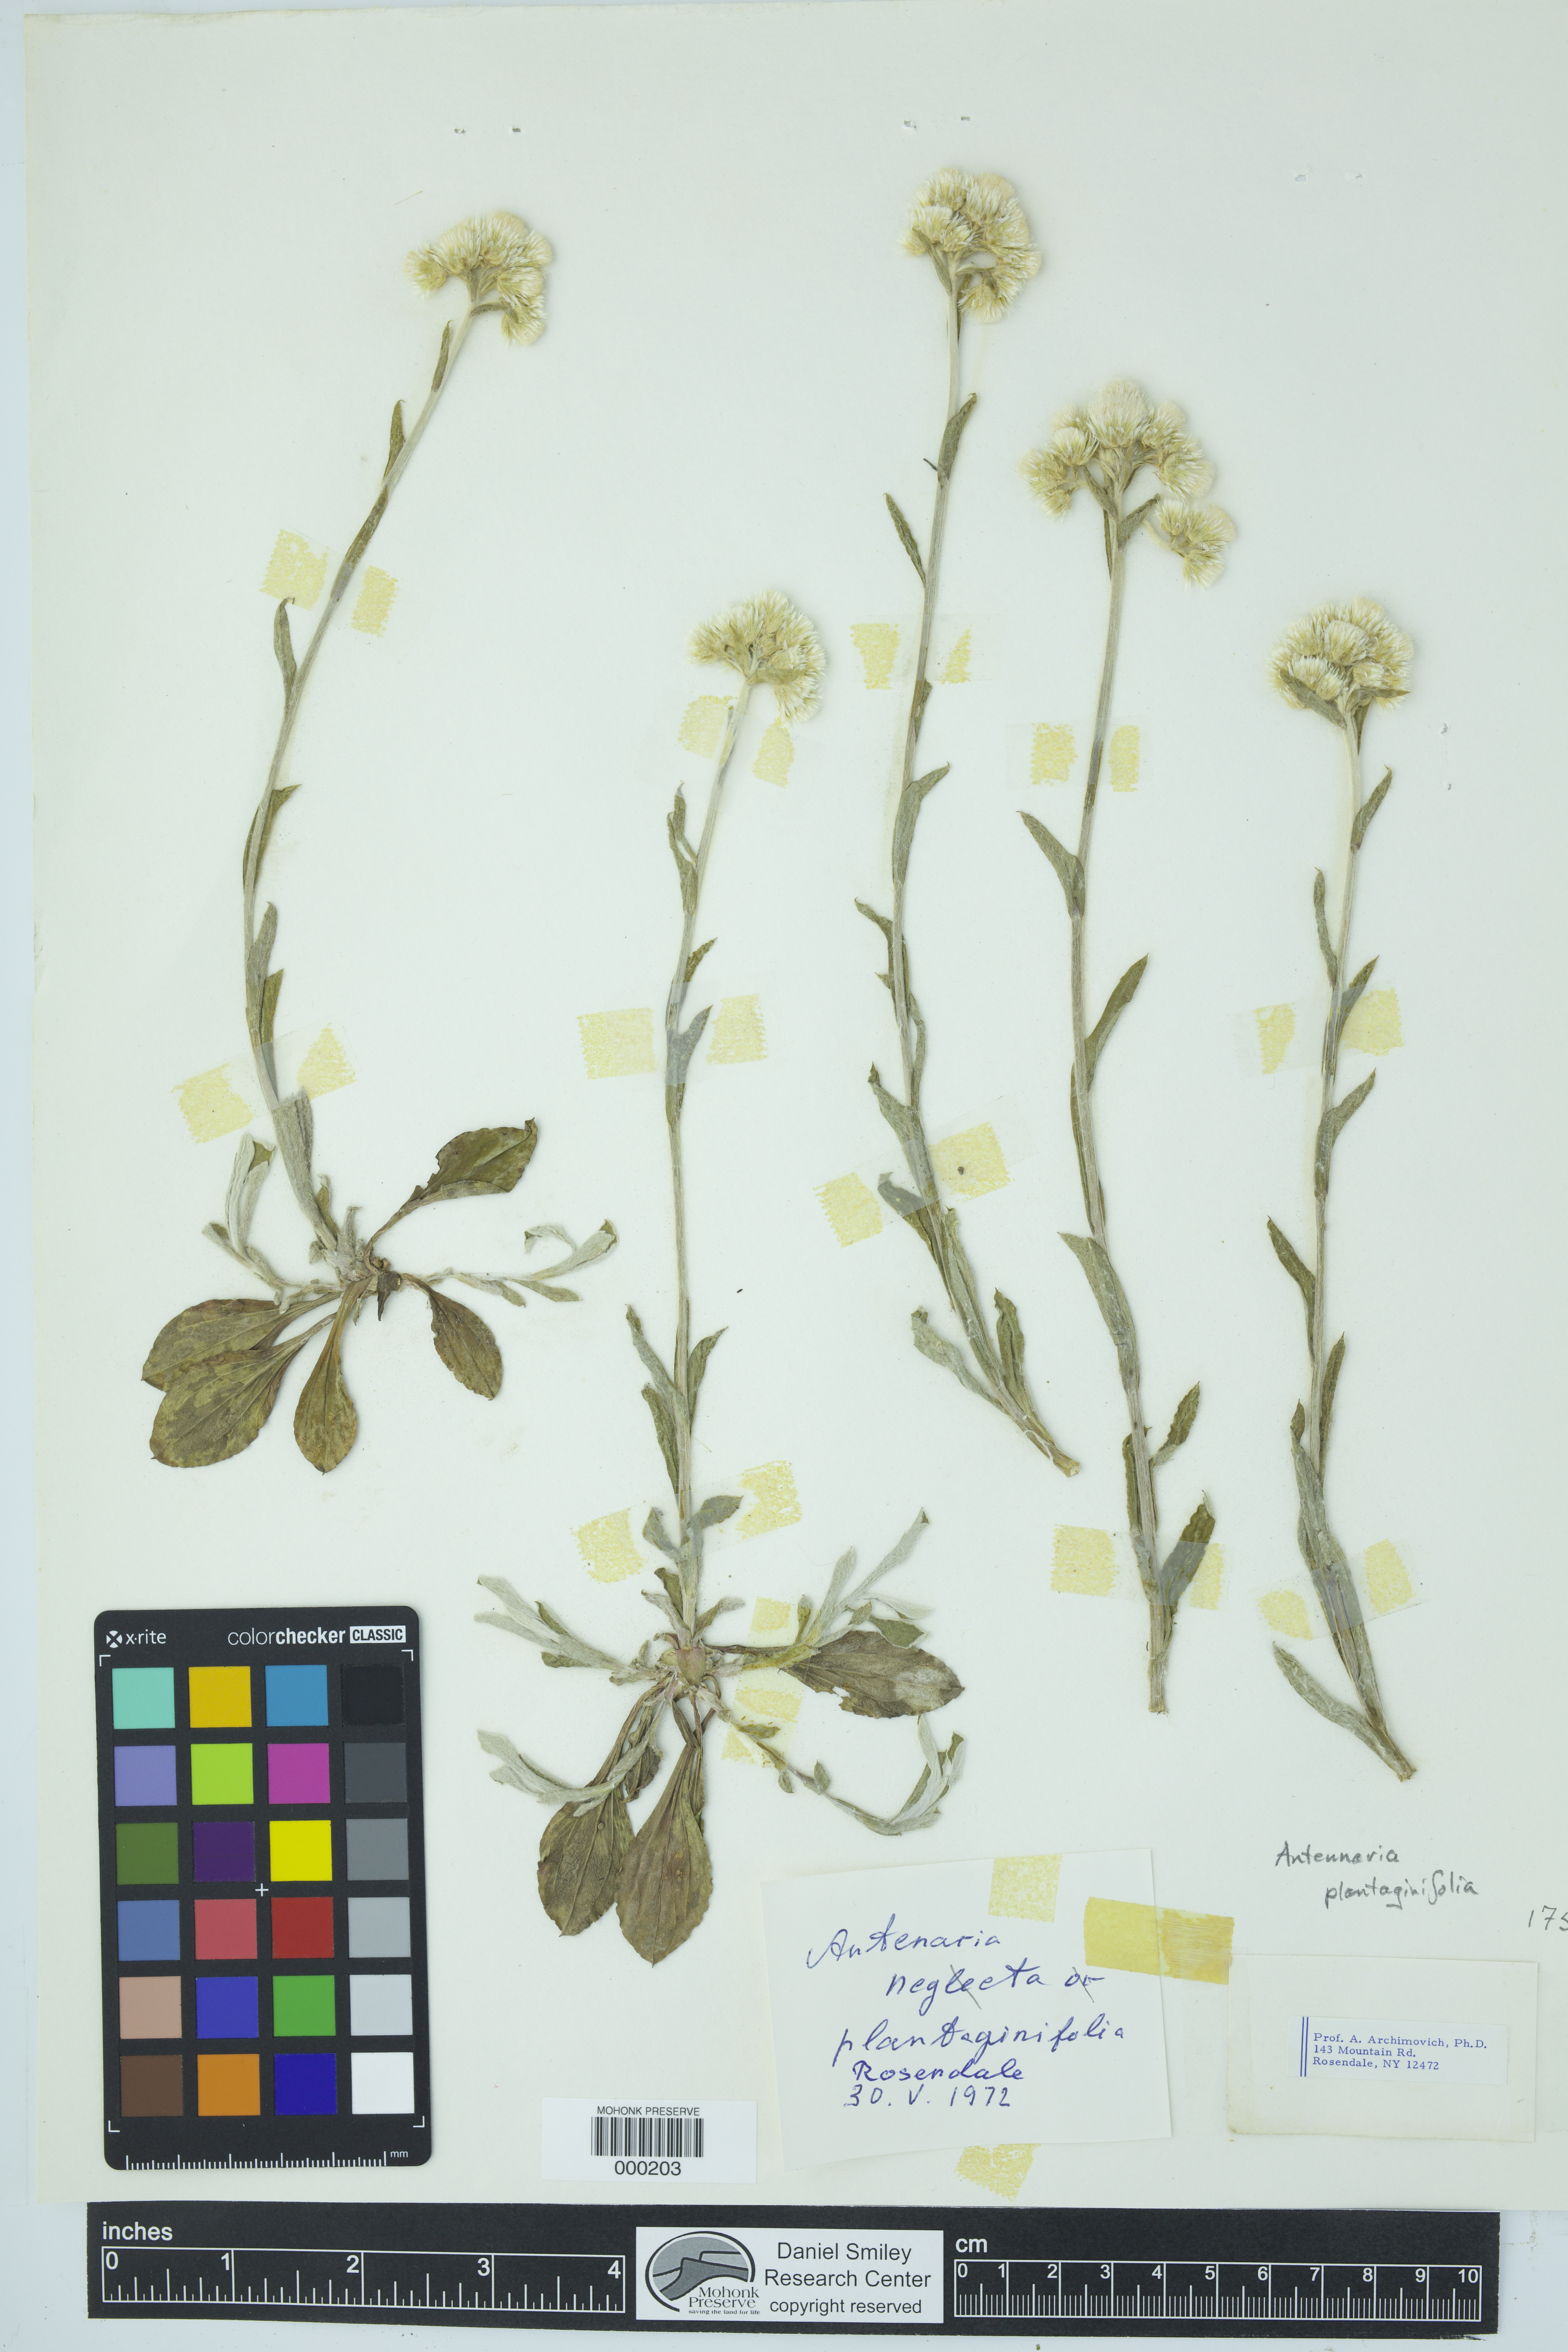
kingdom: Plantae
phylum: Tracheophyta
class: Magnoliopsida
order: Asterales
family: Asteraceae
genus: Antennaria
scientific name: Antennaria plantaginifolia
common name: Plantain-leaved pussytoes
